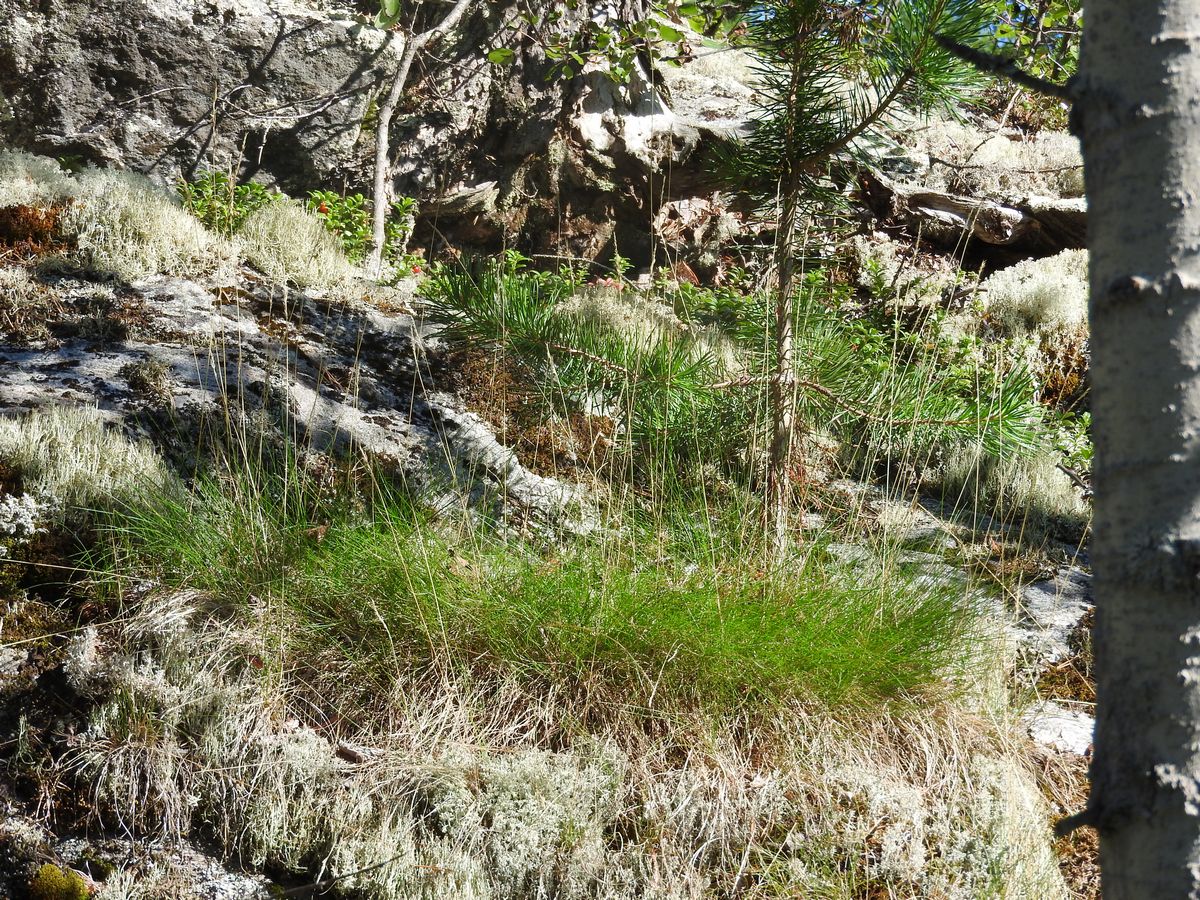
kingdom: Plantae
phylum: Tracheophyta
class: Liliopsida
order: Poales
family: Poaceae
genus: Festuca
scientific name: Festuca ovina
